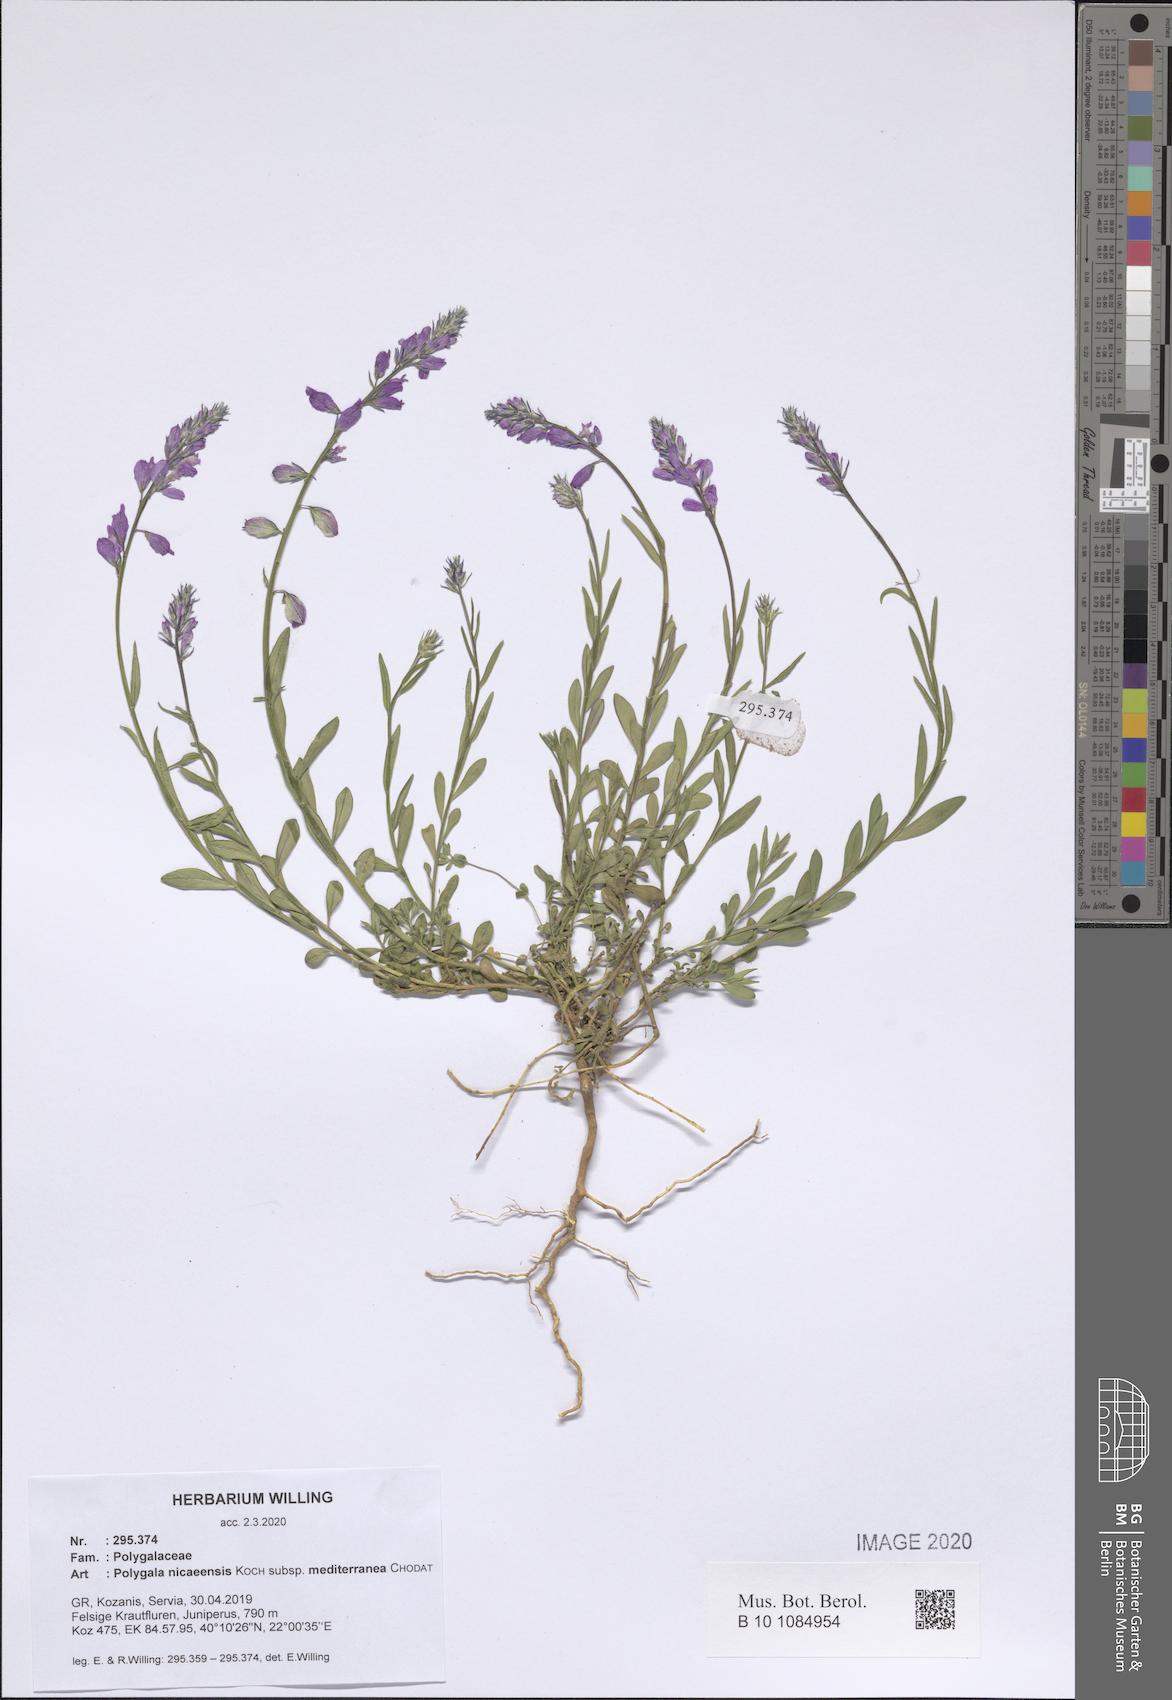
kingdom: Plantae
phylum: Tracheophyta
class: Magnoliopsida
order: Fabales
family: Polygalaceae
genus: Polygala
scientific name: Polygala nicaeensis
